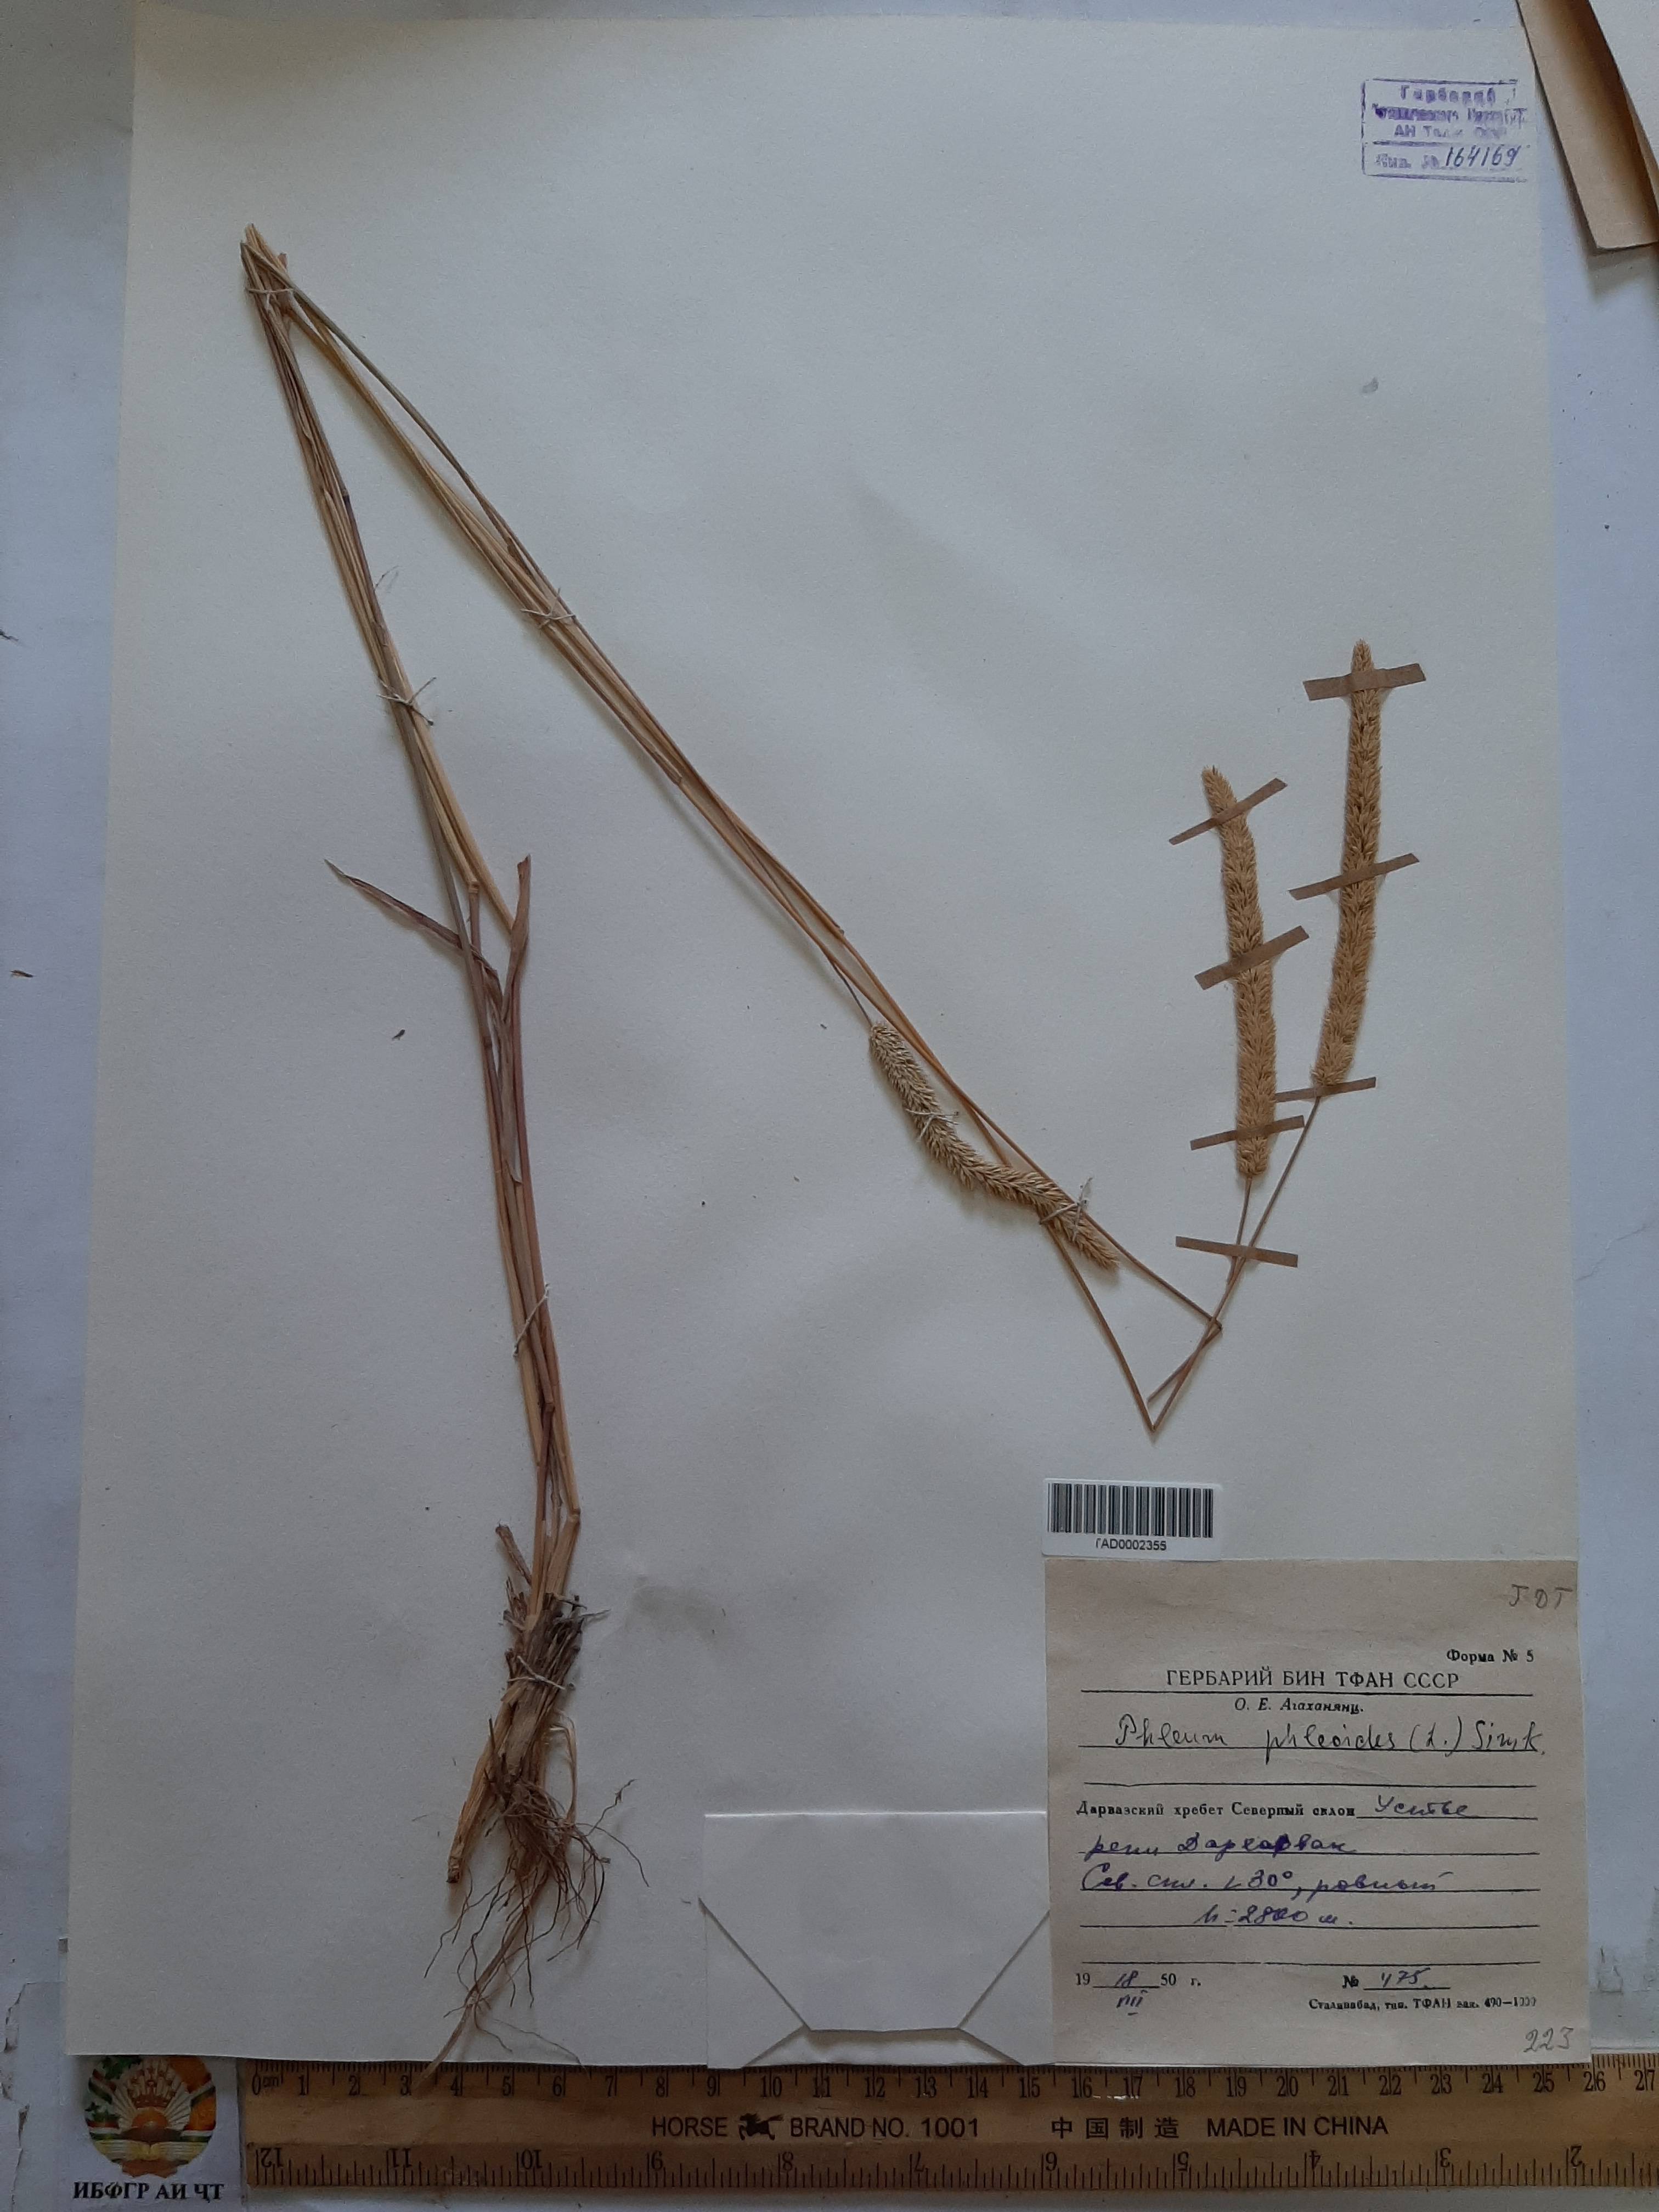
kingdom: Plantae
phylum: Tracheophyta
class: Liliopsida
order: Poales
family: Poaceae
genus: Phleum
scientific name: Phleum phleoides
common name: Purple-stem cat's-tail
